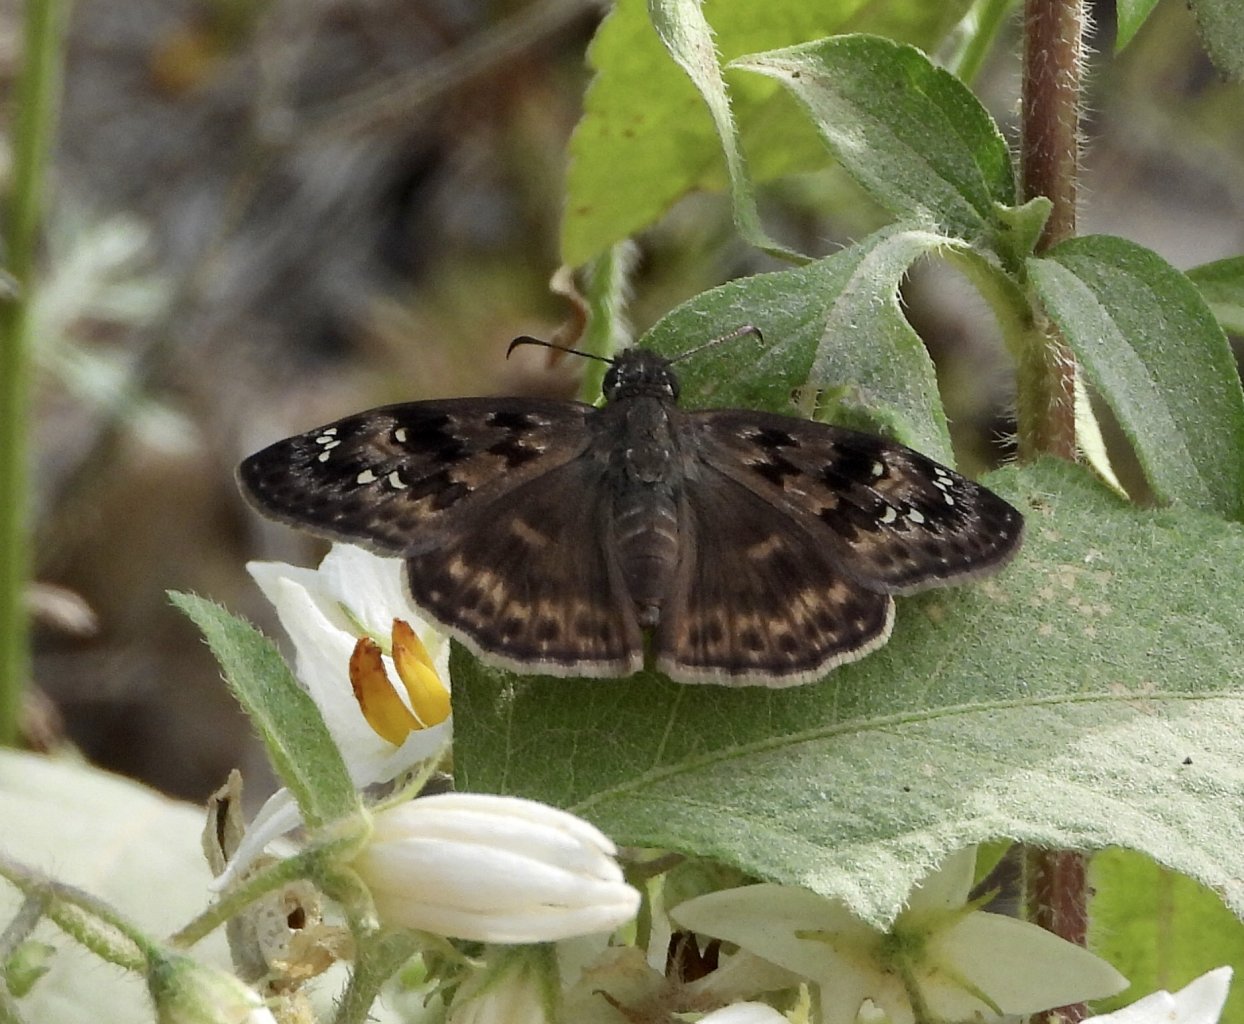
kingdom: Animalia
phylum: Arthropoda
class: Insecta
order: Lepidoptera
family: Hesperiidae
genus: Gesta
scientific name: Gesta
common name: Juvenal's Duskywing
